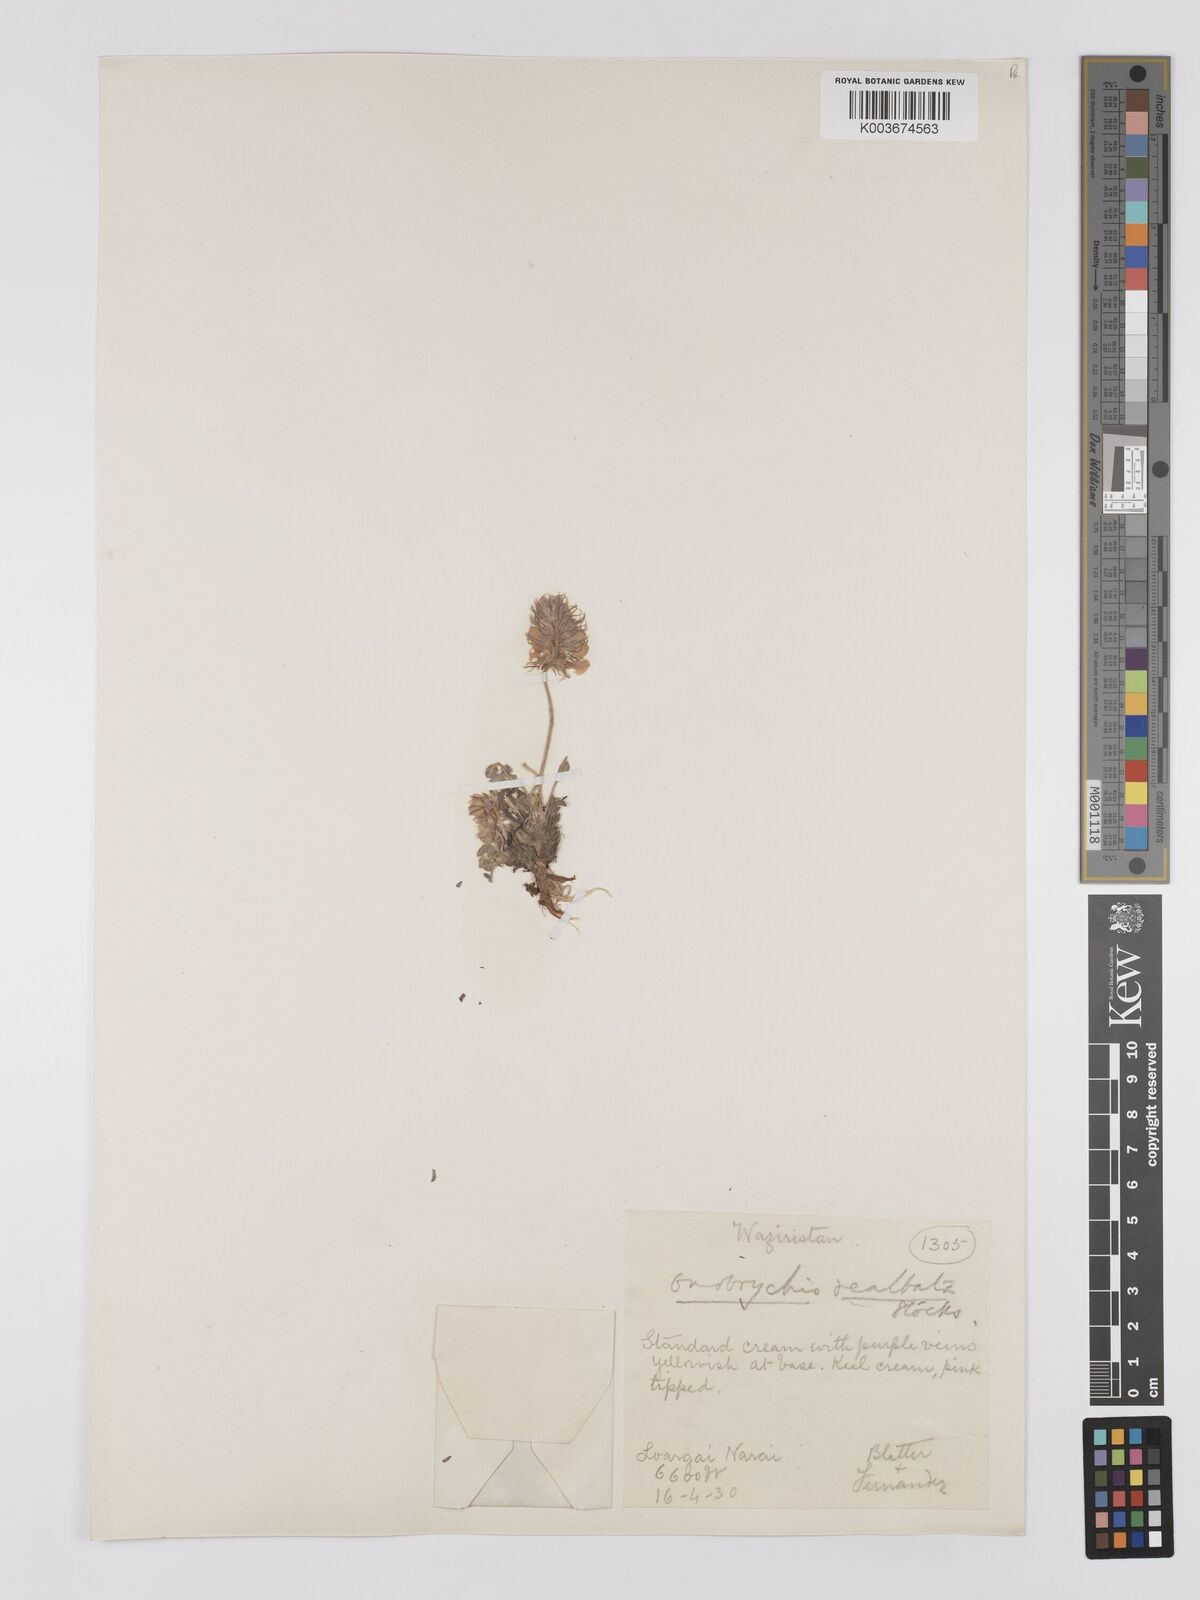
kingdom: Plantae
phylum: Tracheophyta
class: Magnoliopsida
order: Fabales
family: Fabaceae
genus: Onobrychis
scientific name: Onobrychis dealbata
